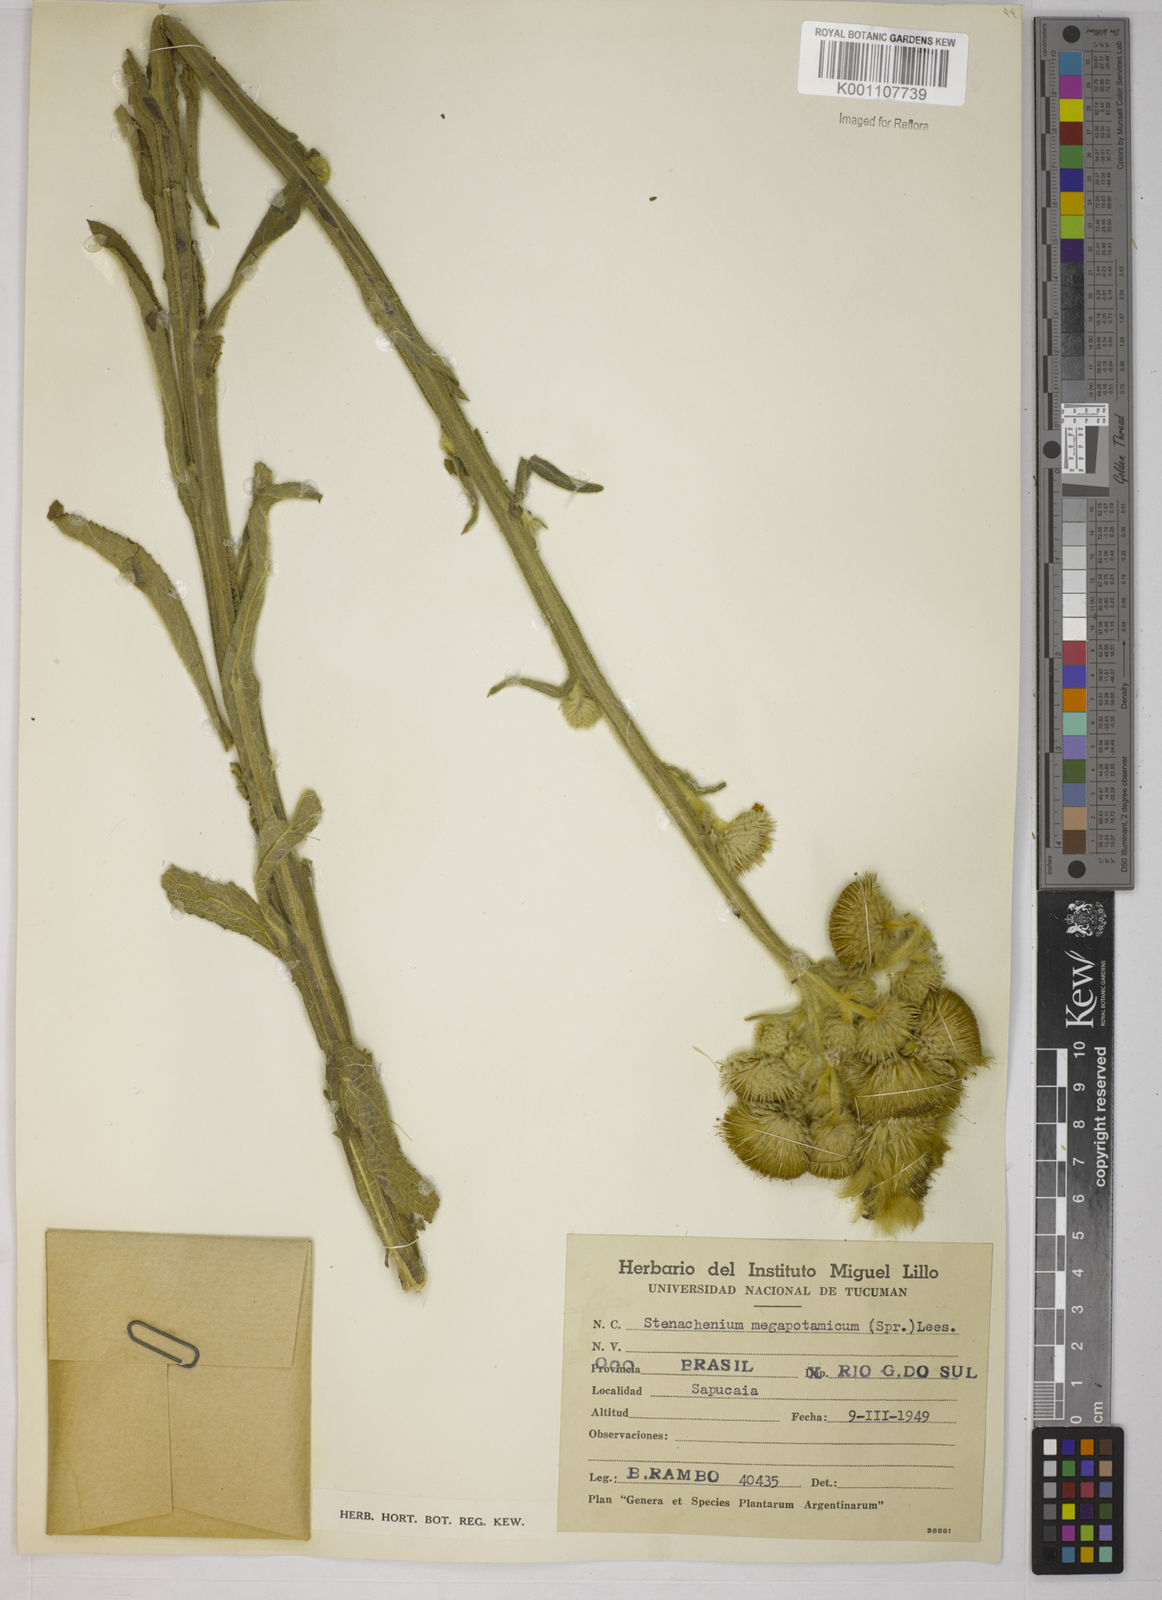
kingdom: Plantae
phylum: Tracheophyta
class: Magnoliopsida
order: Asterales
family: Asteraceae
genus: Stenachaenium
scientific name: Stenachaenium megapotamicum
